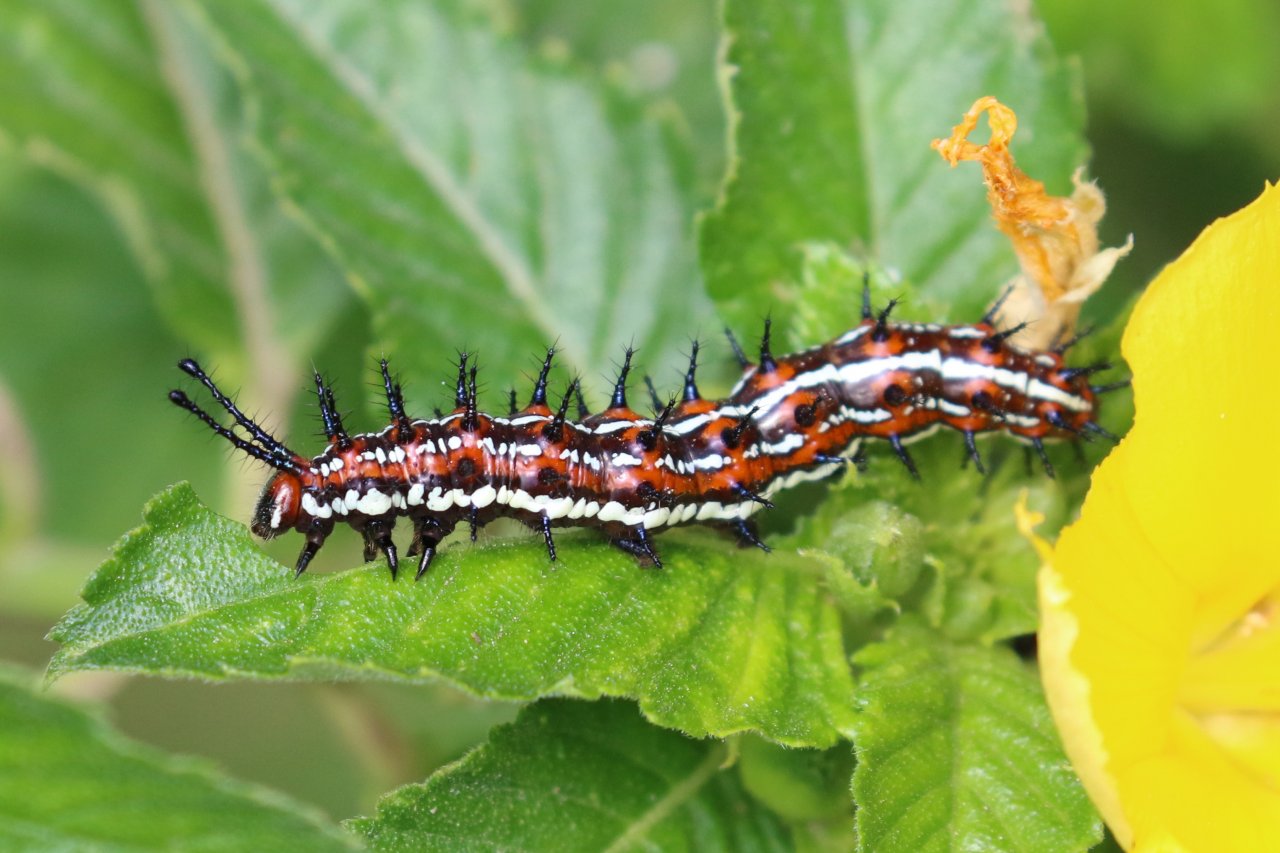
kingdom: Animalia
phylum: Arthropoda
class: Insecta
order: Lepidoptera
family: Nymphalidae
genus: Dione
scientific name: Dione moneta
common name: Mexican Silverspot
